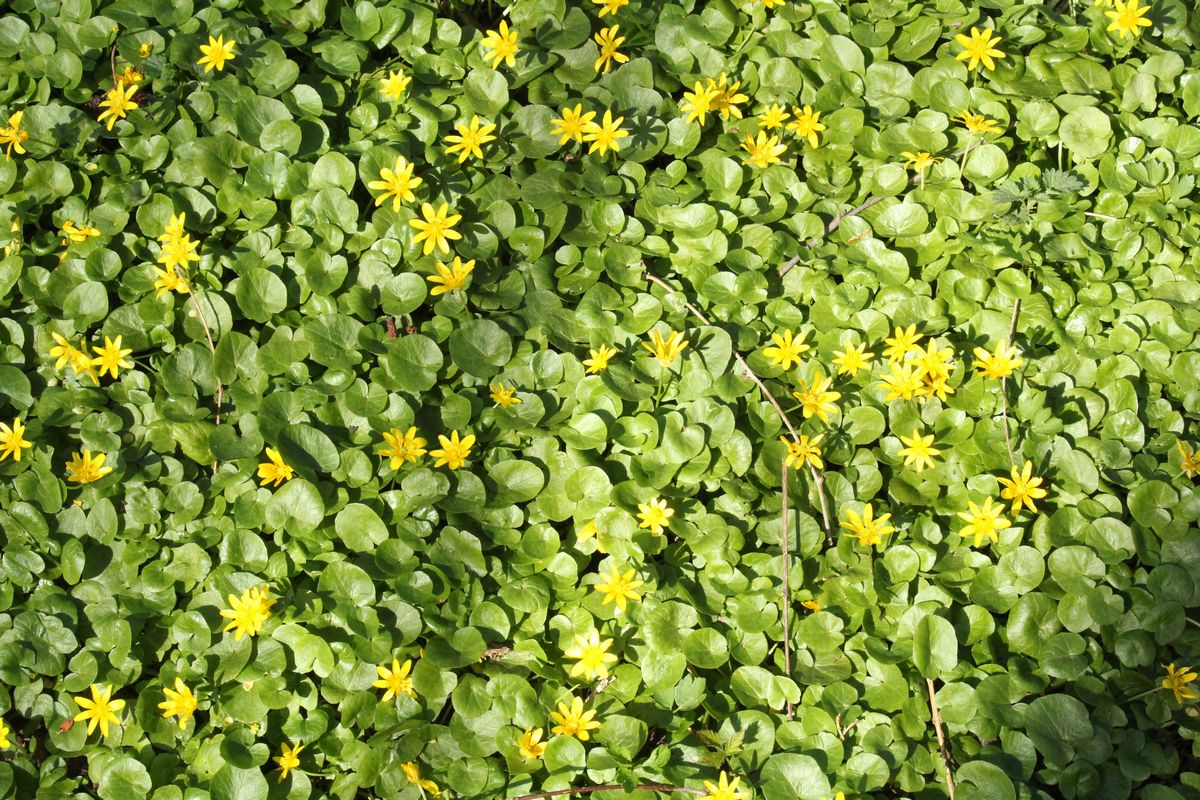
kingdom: Plantae
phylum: Tracheophyta
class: Magnoliopsida
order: Ranunculales
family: Ranunculaceae
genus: Ficaria
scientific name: Ficaria verna
